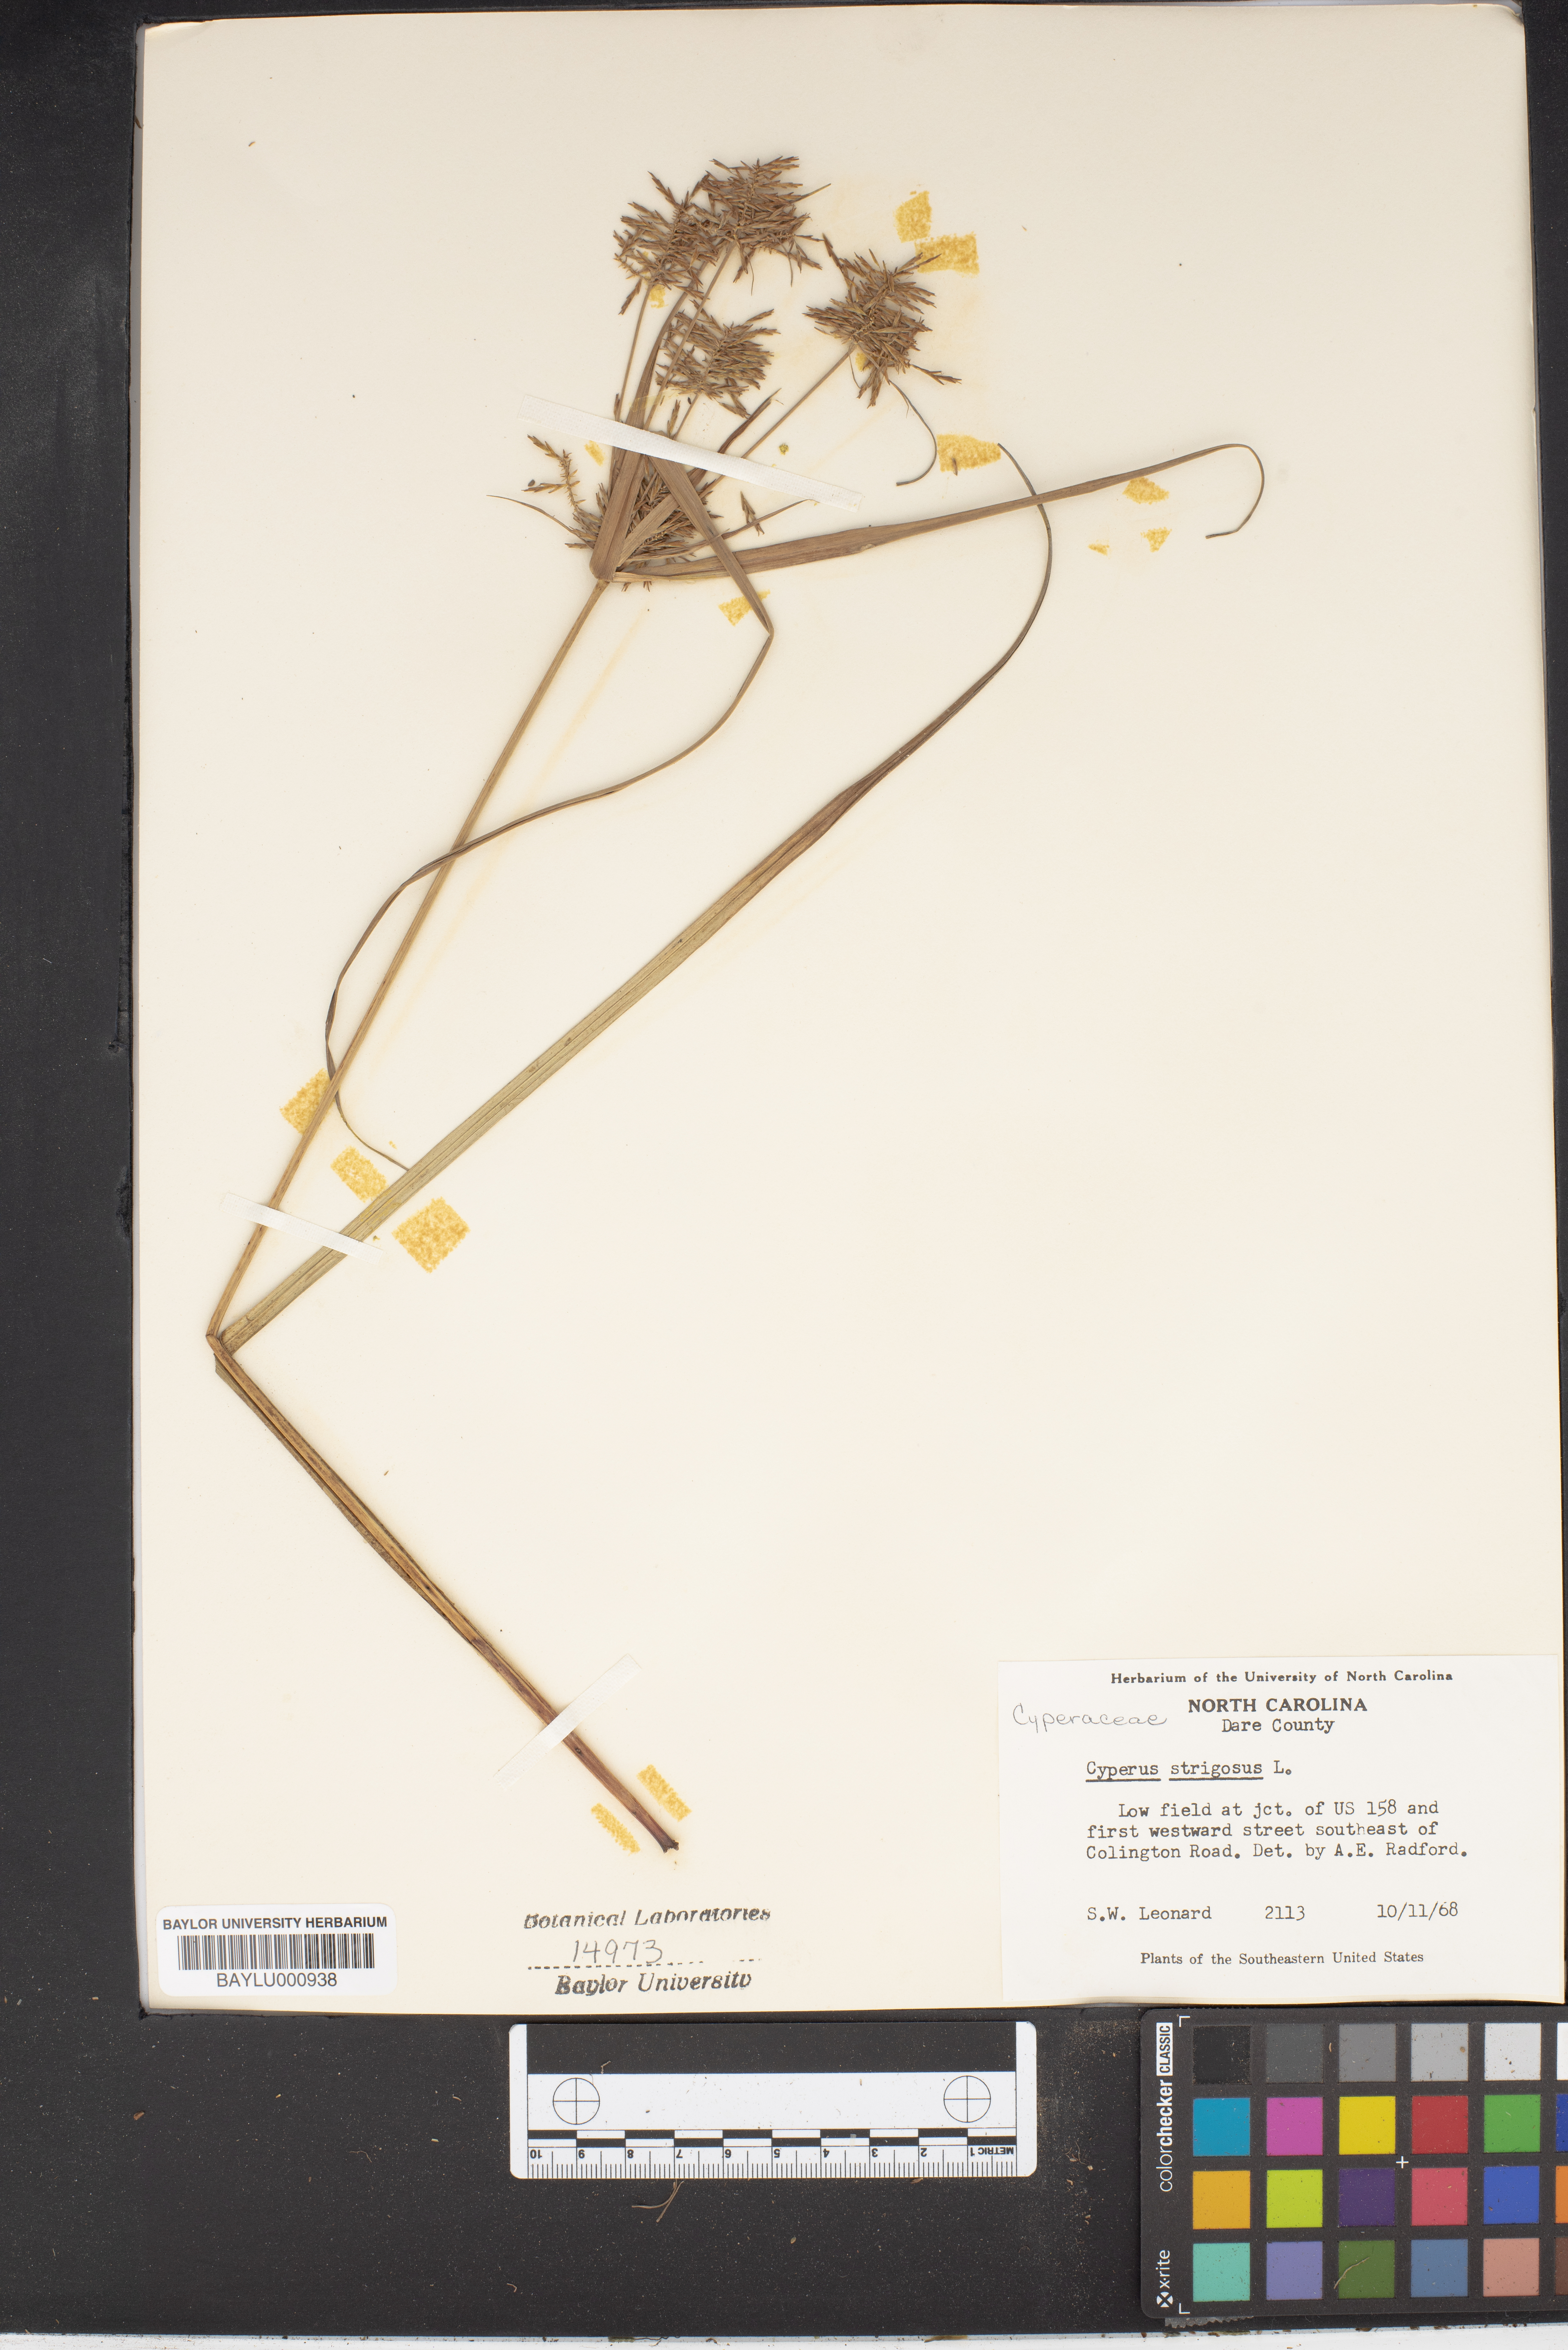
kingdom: Plantae
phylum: Tracheophyta
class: Liliopsida
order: Poales
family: Cyperaceae
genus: Cyperus
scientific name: Cyperus strigosus
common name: False nutsedge
